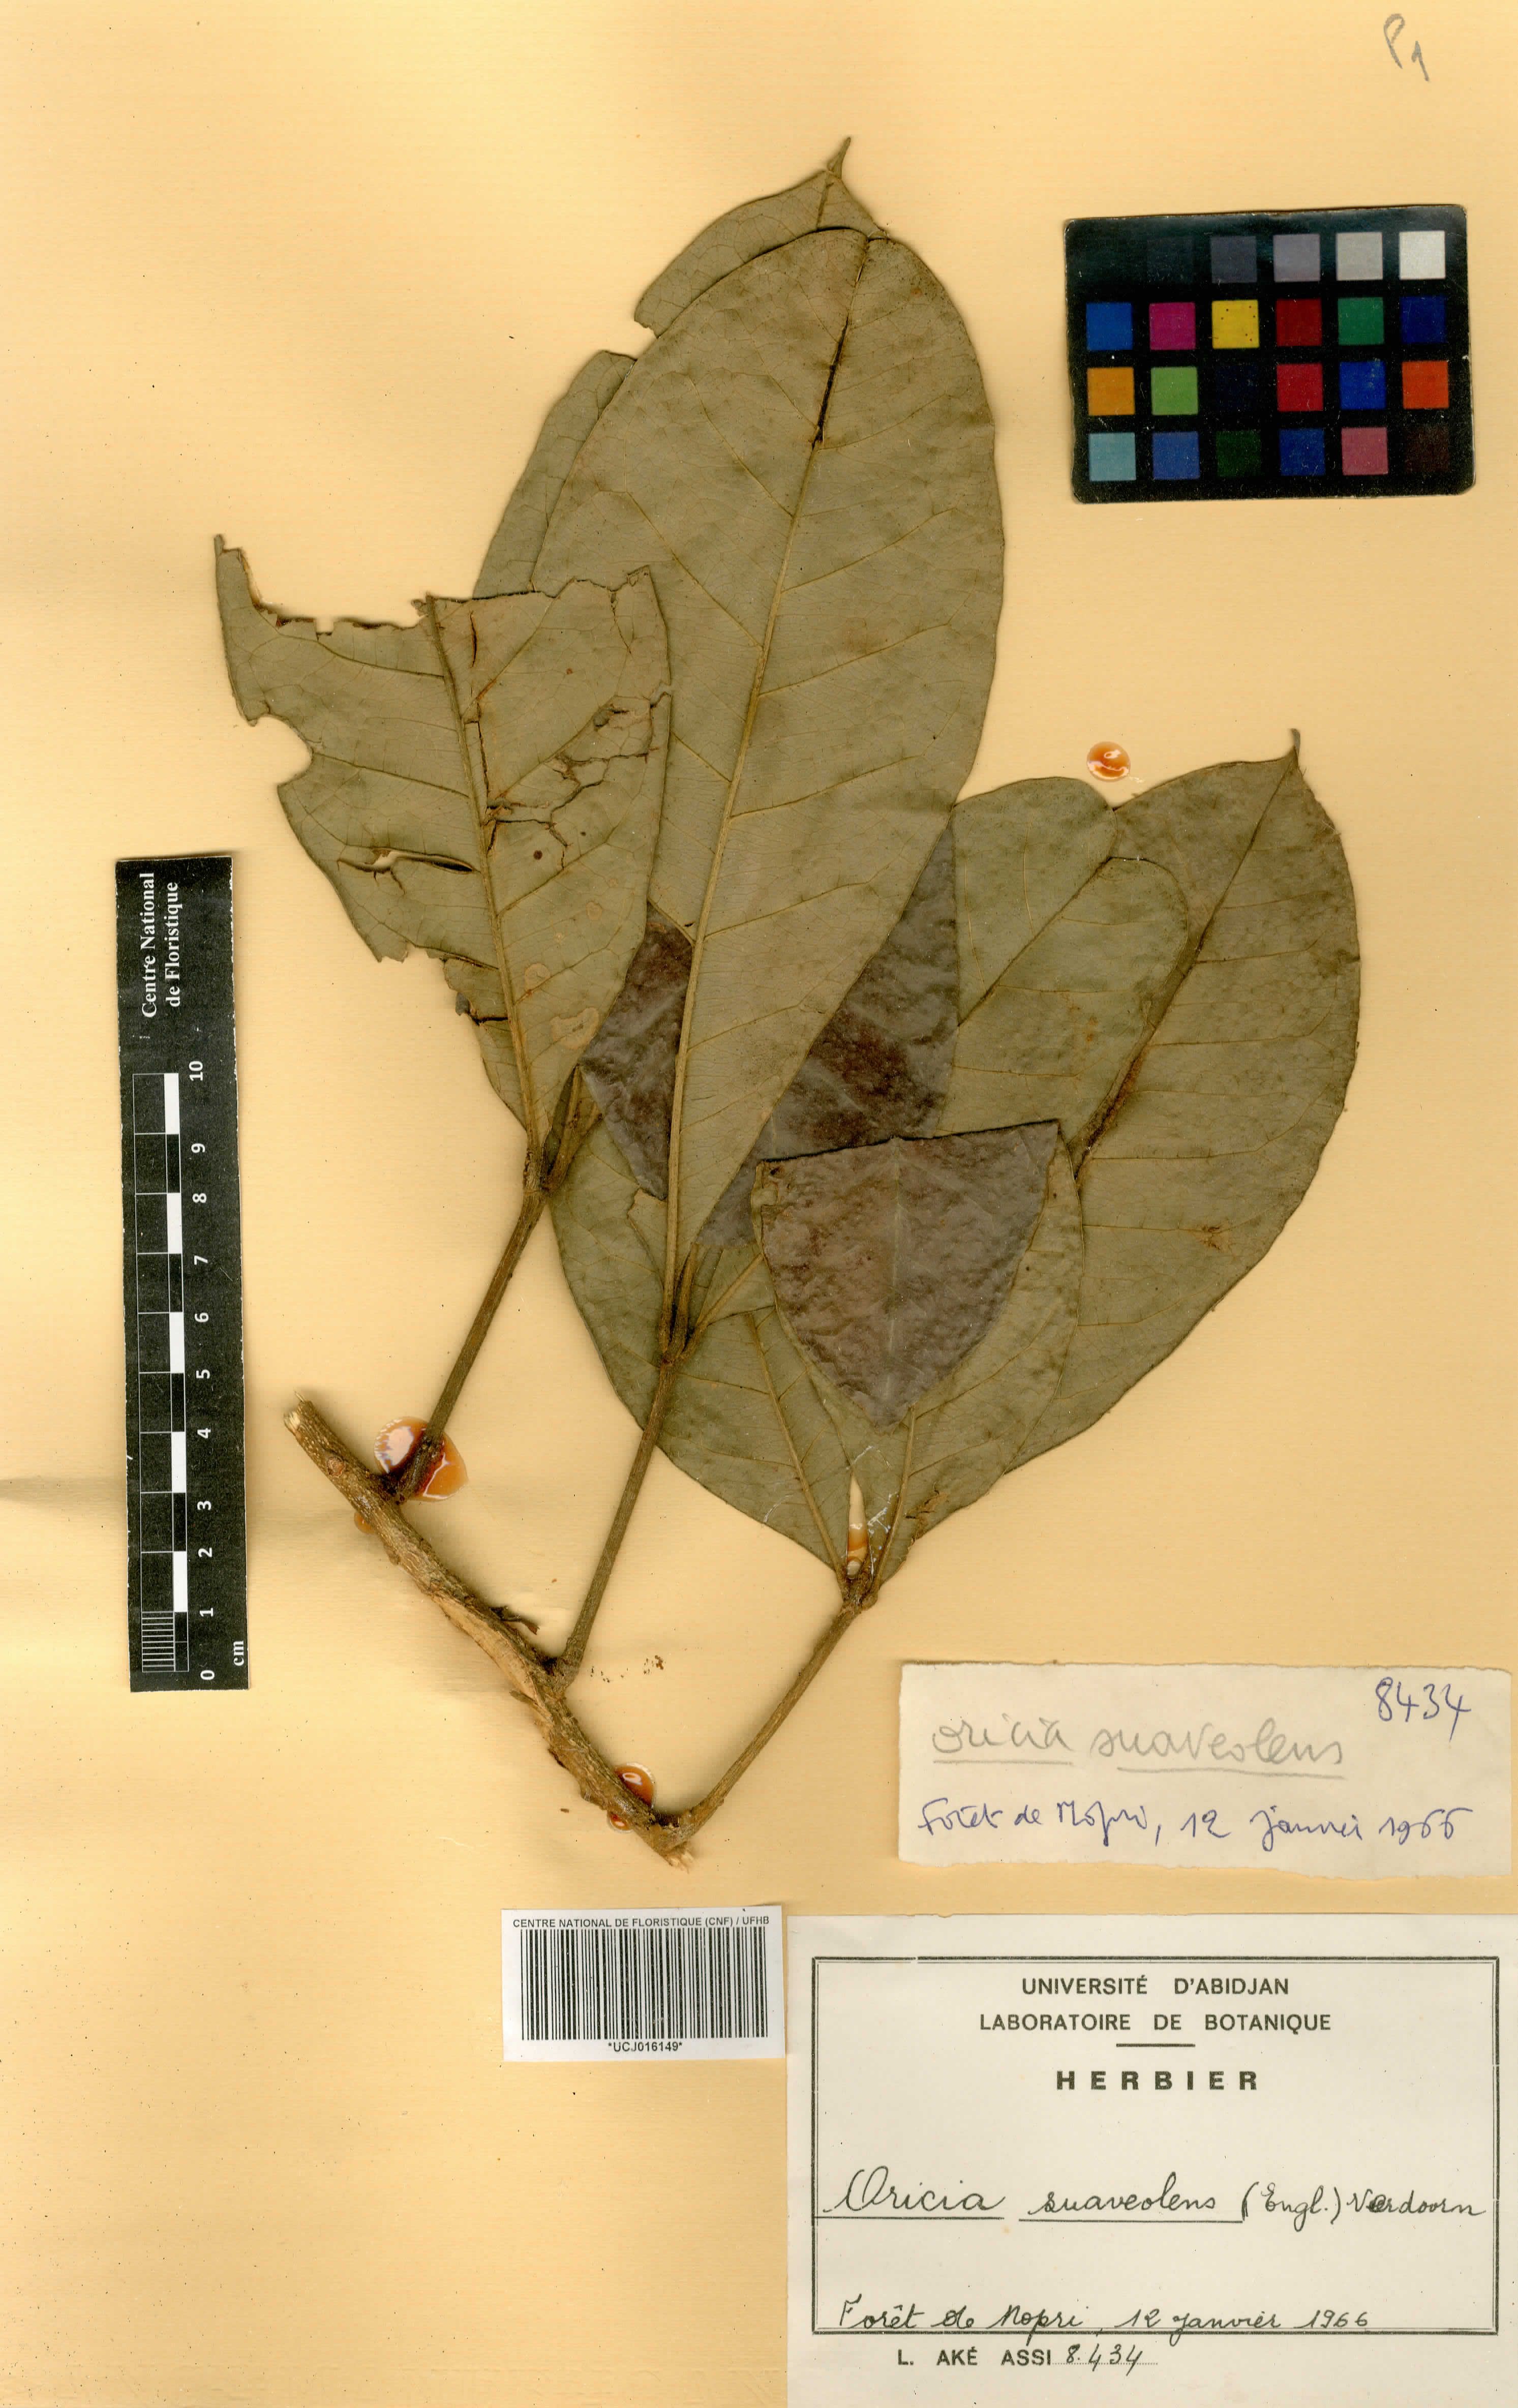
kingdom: Plantae
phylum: Tracheophyta
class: Magnoliopsida
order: Sapindales
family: Rutaceae
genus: Vepris
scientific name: Vepris suaveolens
